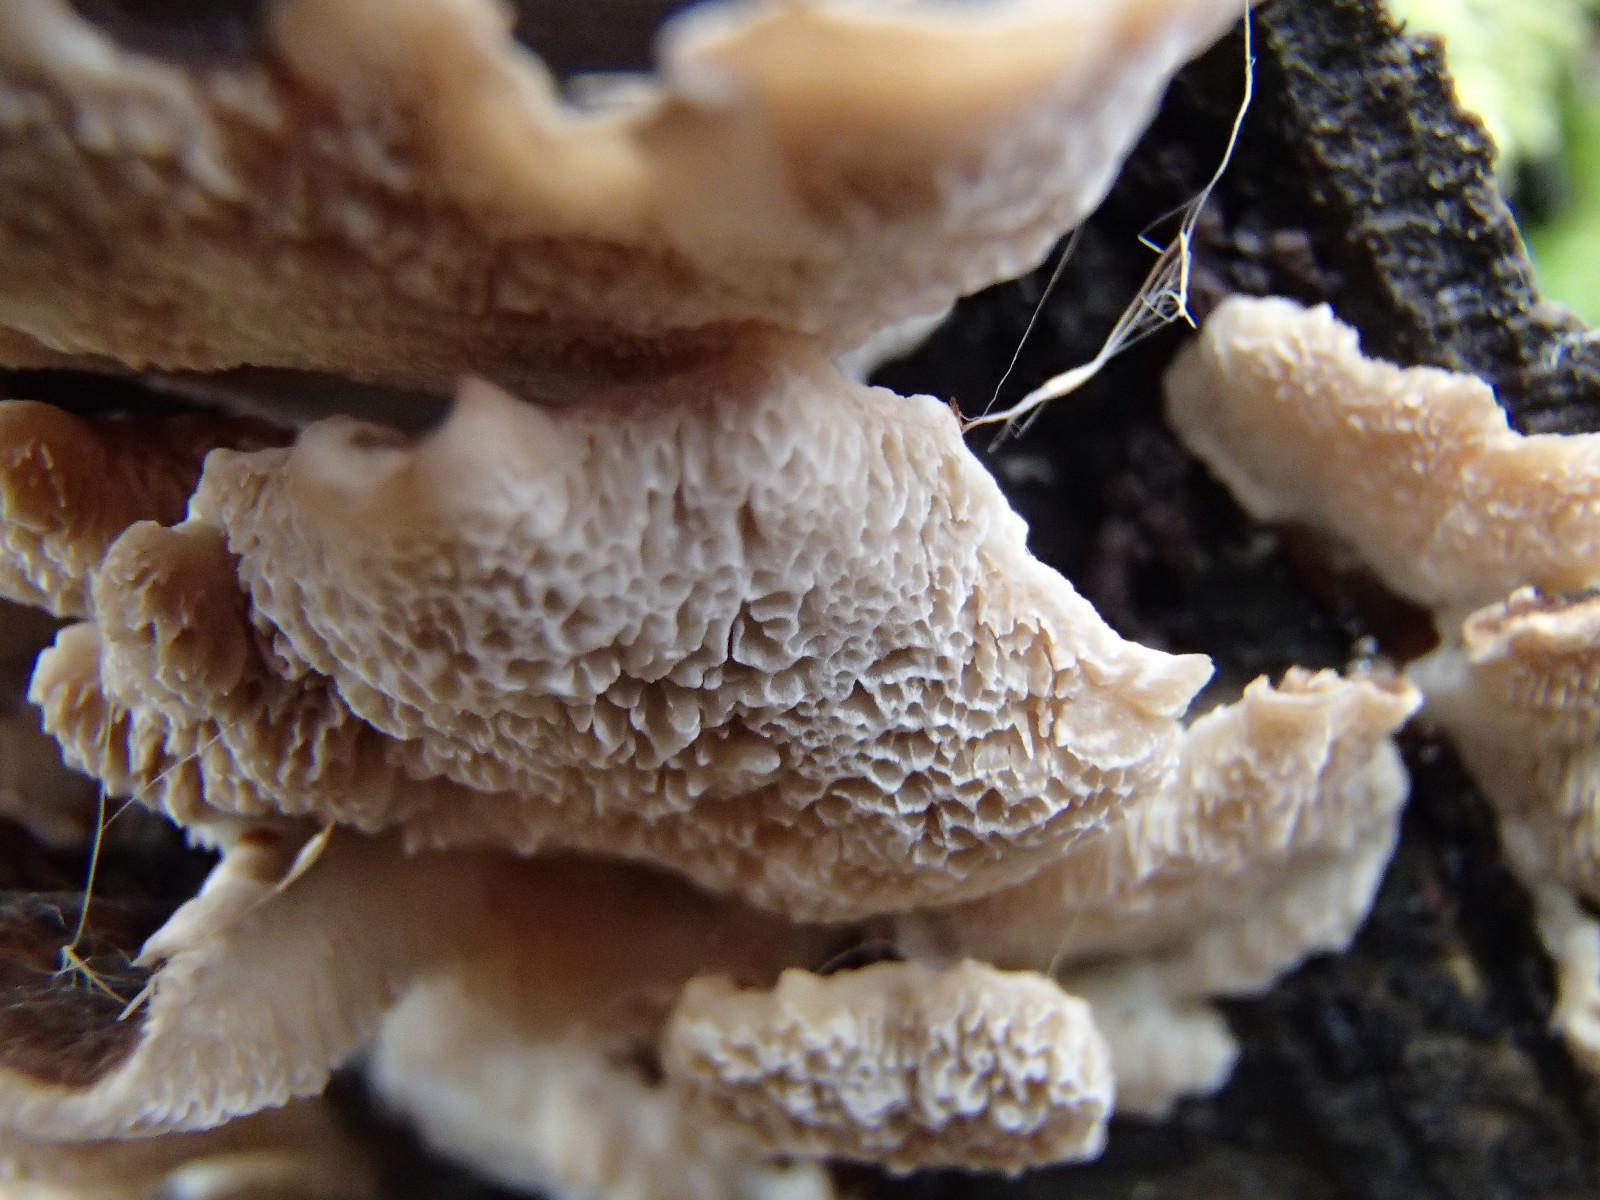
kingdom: Fungi
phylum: Basidiomycota
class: Agaricomycetes
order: Polyporales
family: Polyporaceae
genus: Trametes
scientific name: Trametes versicolor
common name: broget læderporesvamp
